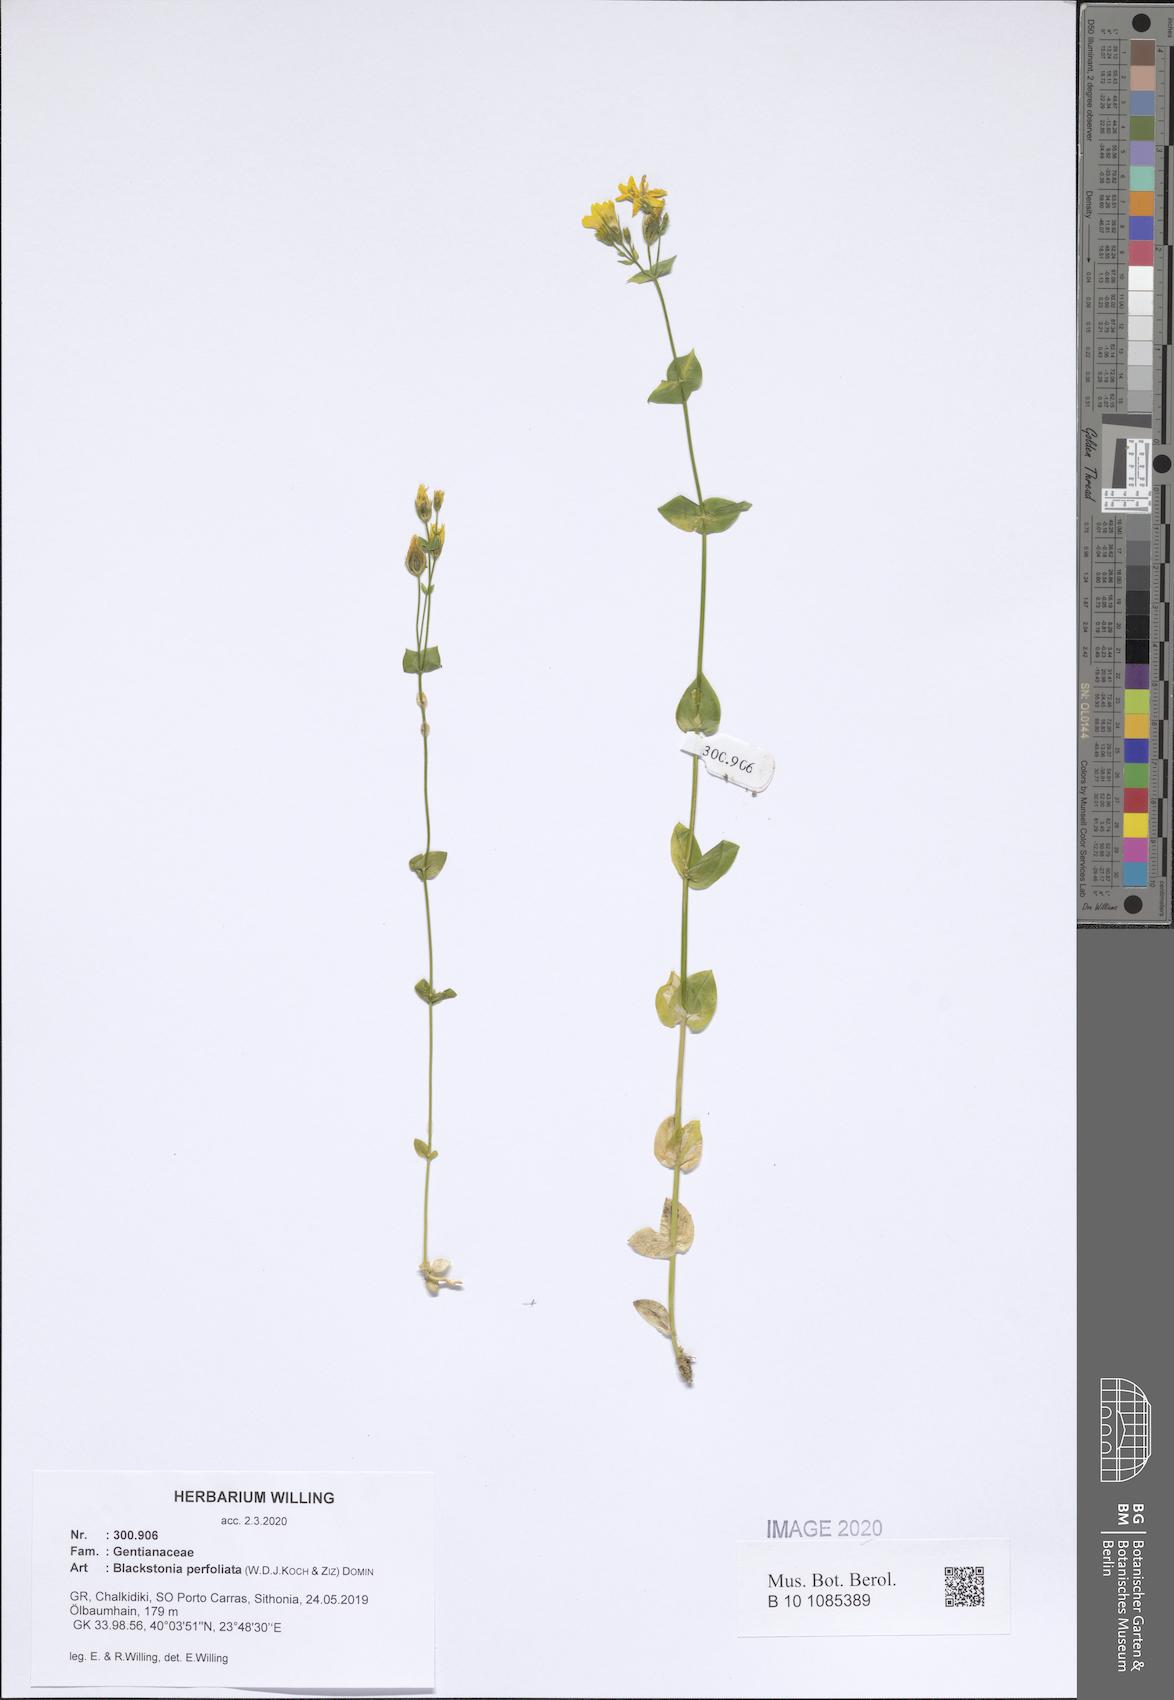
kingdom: Plantae
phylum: Tracheophyta
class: Magnoliopsida
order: Gentianales
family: Gentianaceae
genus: Blackstonia
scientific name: Blackstonia perfoliata
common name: Yellow-wort
